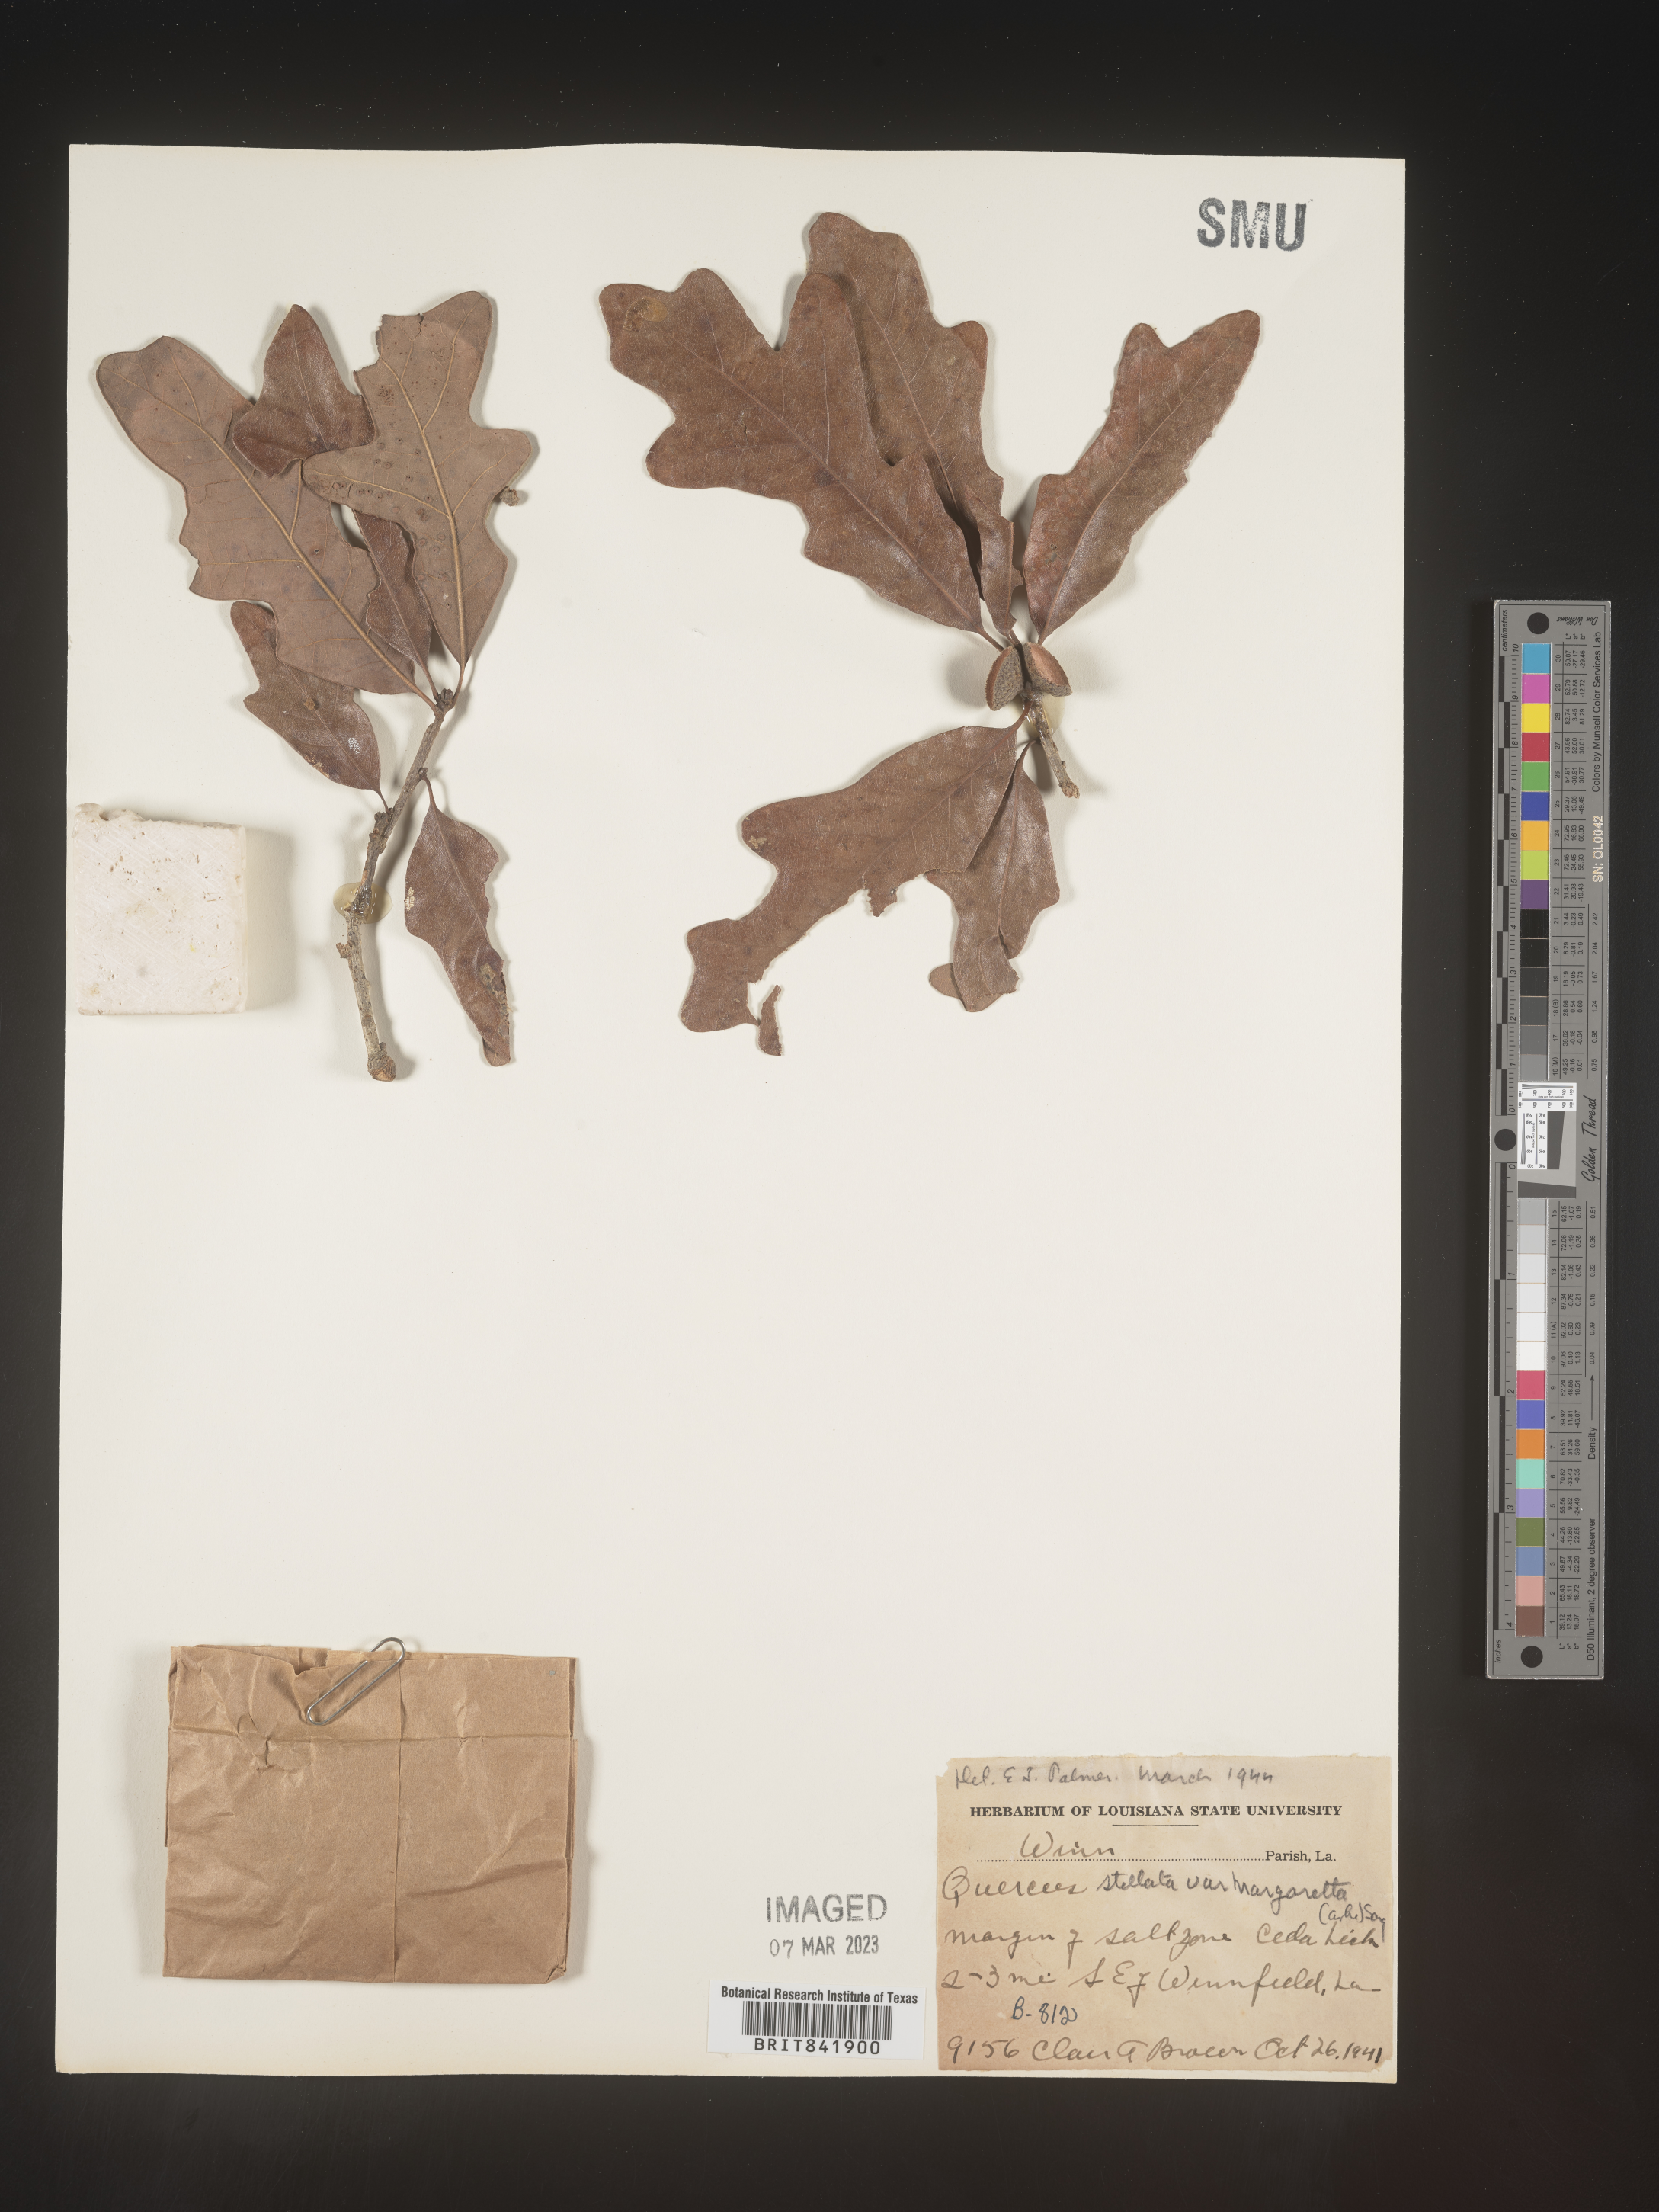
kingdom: Plantae
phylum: Tracheophyta
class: Magnoliopsida
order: Fagales
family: Fagaceae
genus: Quercus
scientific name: Quercus stellata
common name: Post oak
